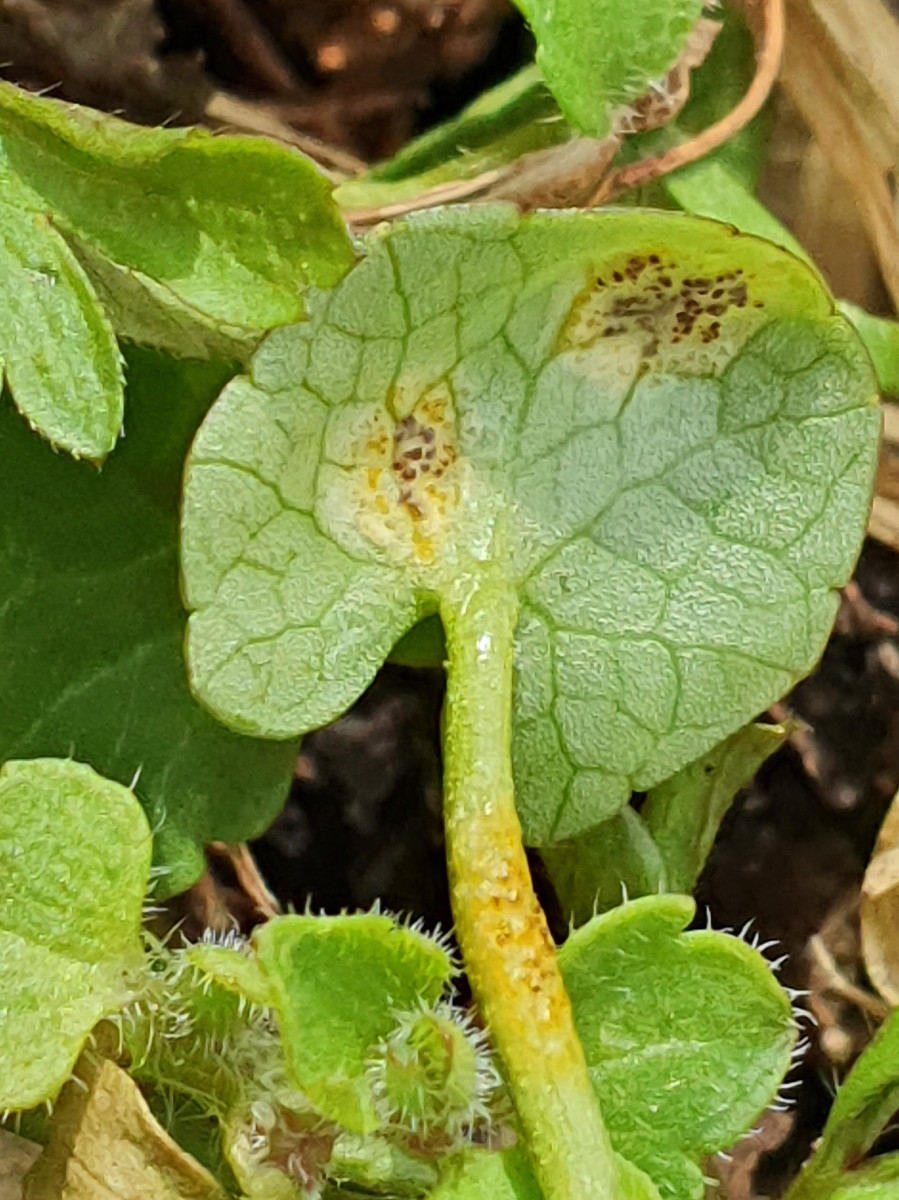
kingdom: Fungi
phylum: Basidiomycota
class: Pucciniomycetes
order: Pucciniales
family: Pucciniaceae
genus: Uromyces
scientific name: Uromyces ficariae
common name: vorterod-encellerust
